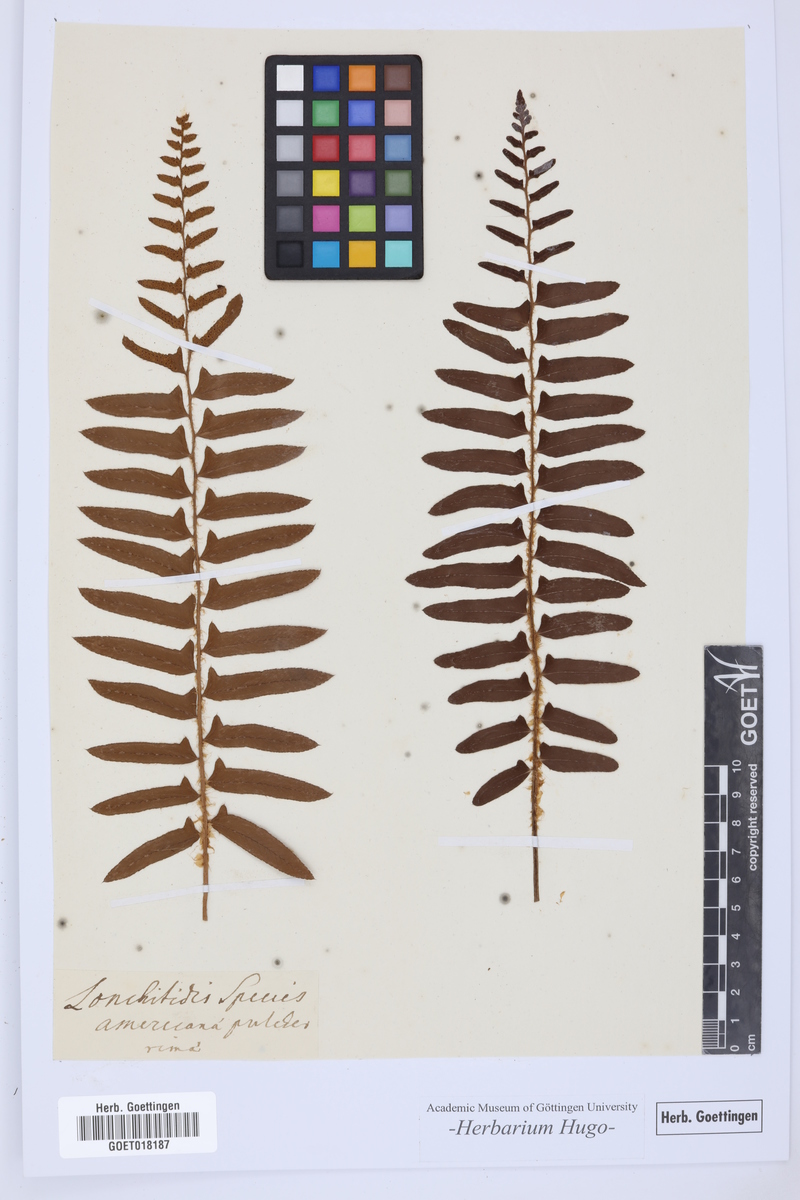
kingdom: Plantae
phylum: Tracheophyta
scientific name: Tracheophyta
